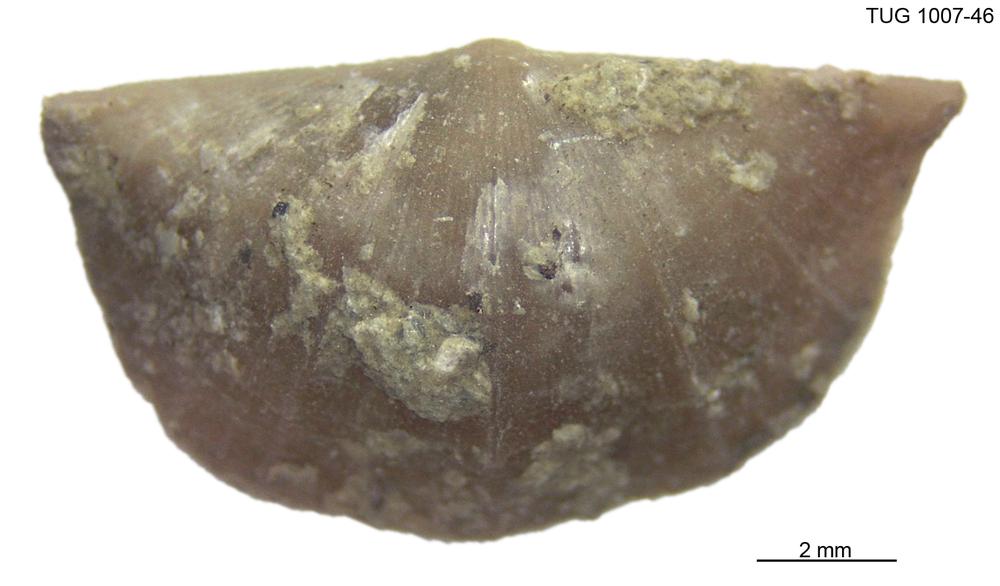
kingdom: Animalia
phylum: Brachiopoda
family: Oldhaminidae
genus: Eoplectodonta
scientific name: Eoplectodonta
